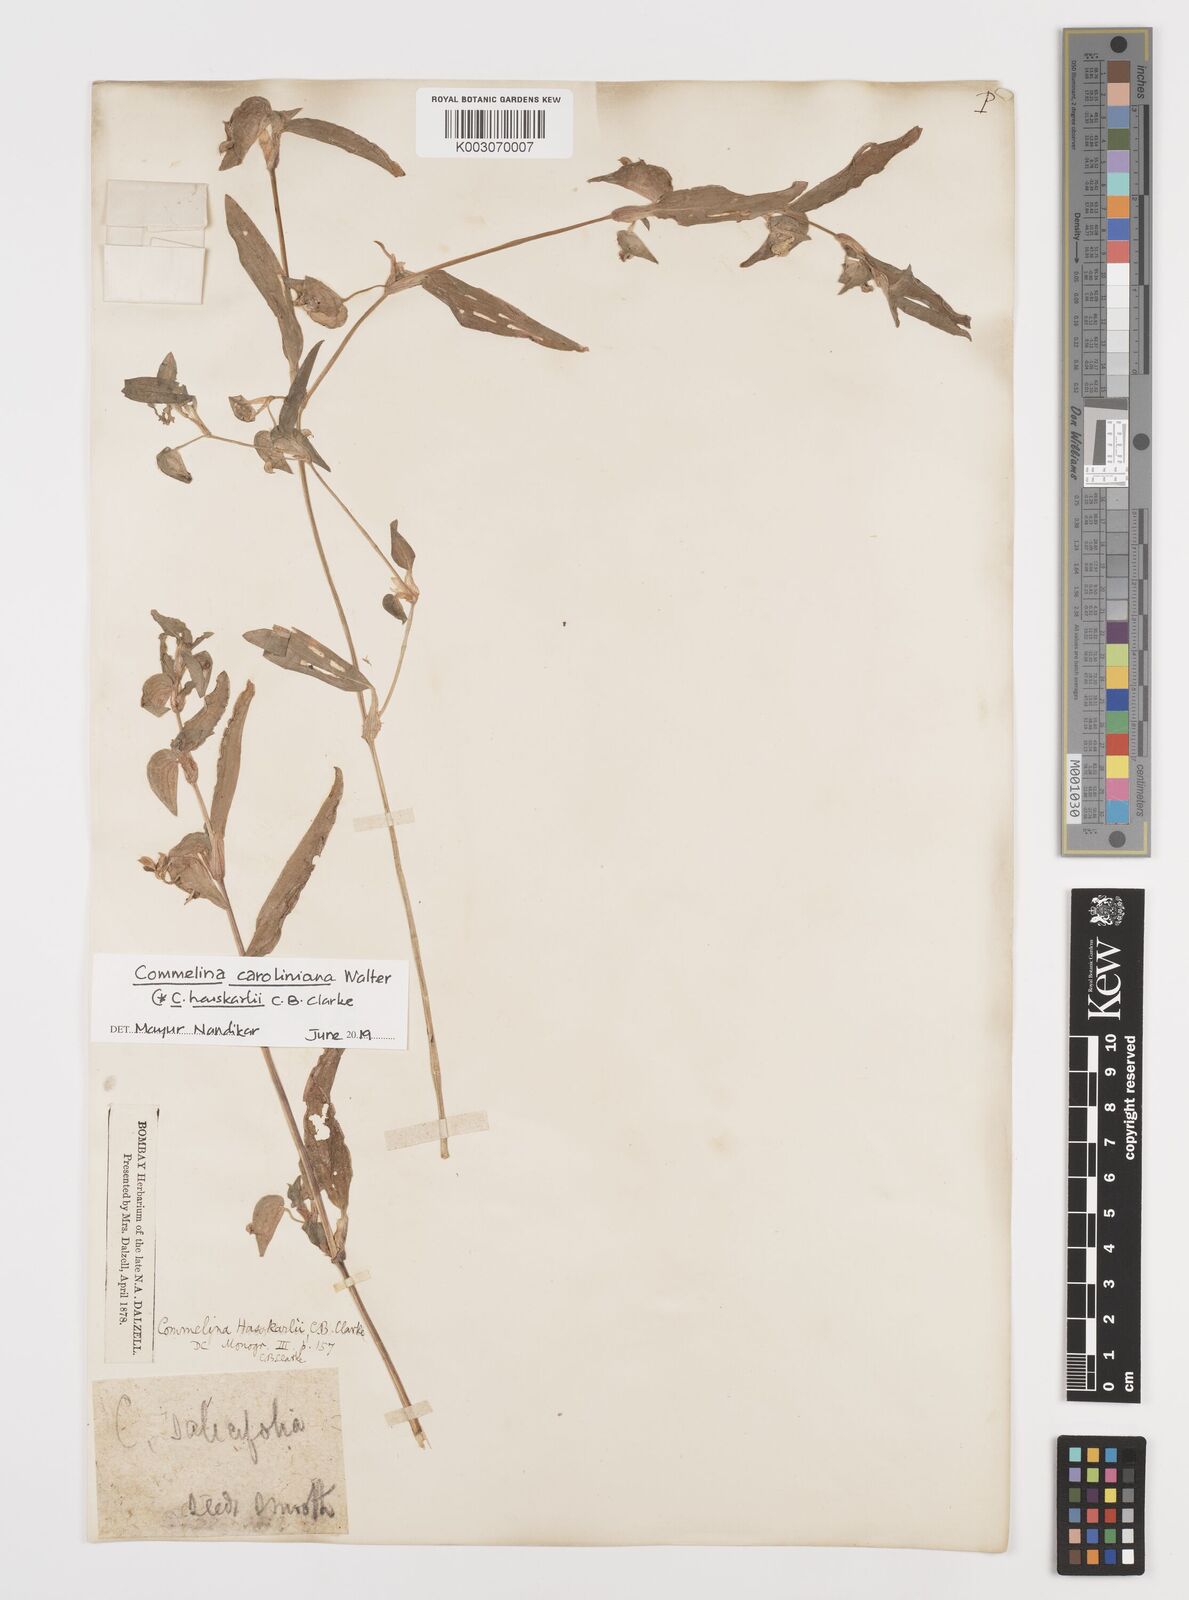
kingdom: Plantae
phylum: Tracheophyta
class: Liliopsida
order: Commelinales
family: Commelinaceae
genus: Commelina
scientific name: Commelina caroliniana
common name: Carolina dayflower
